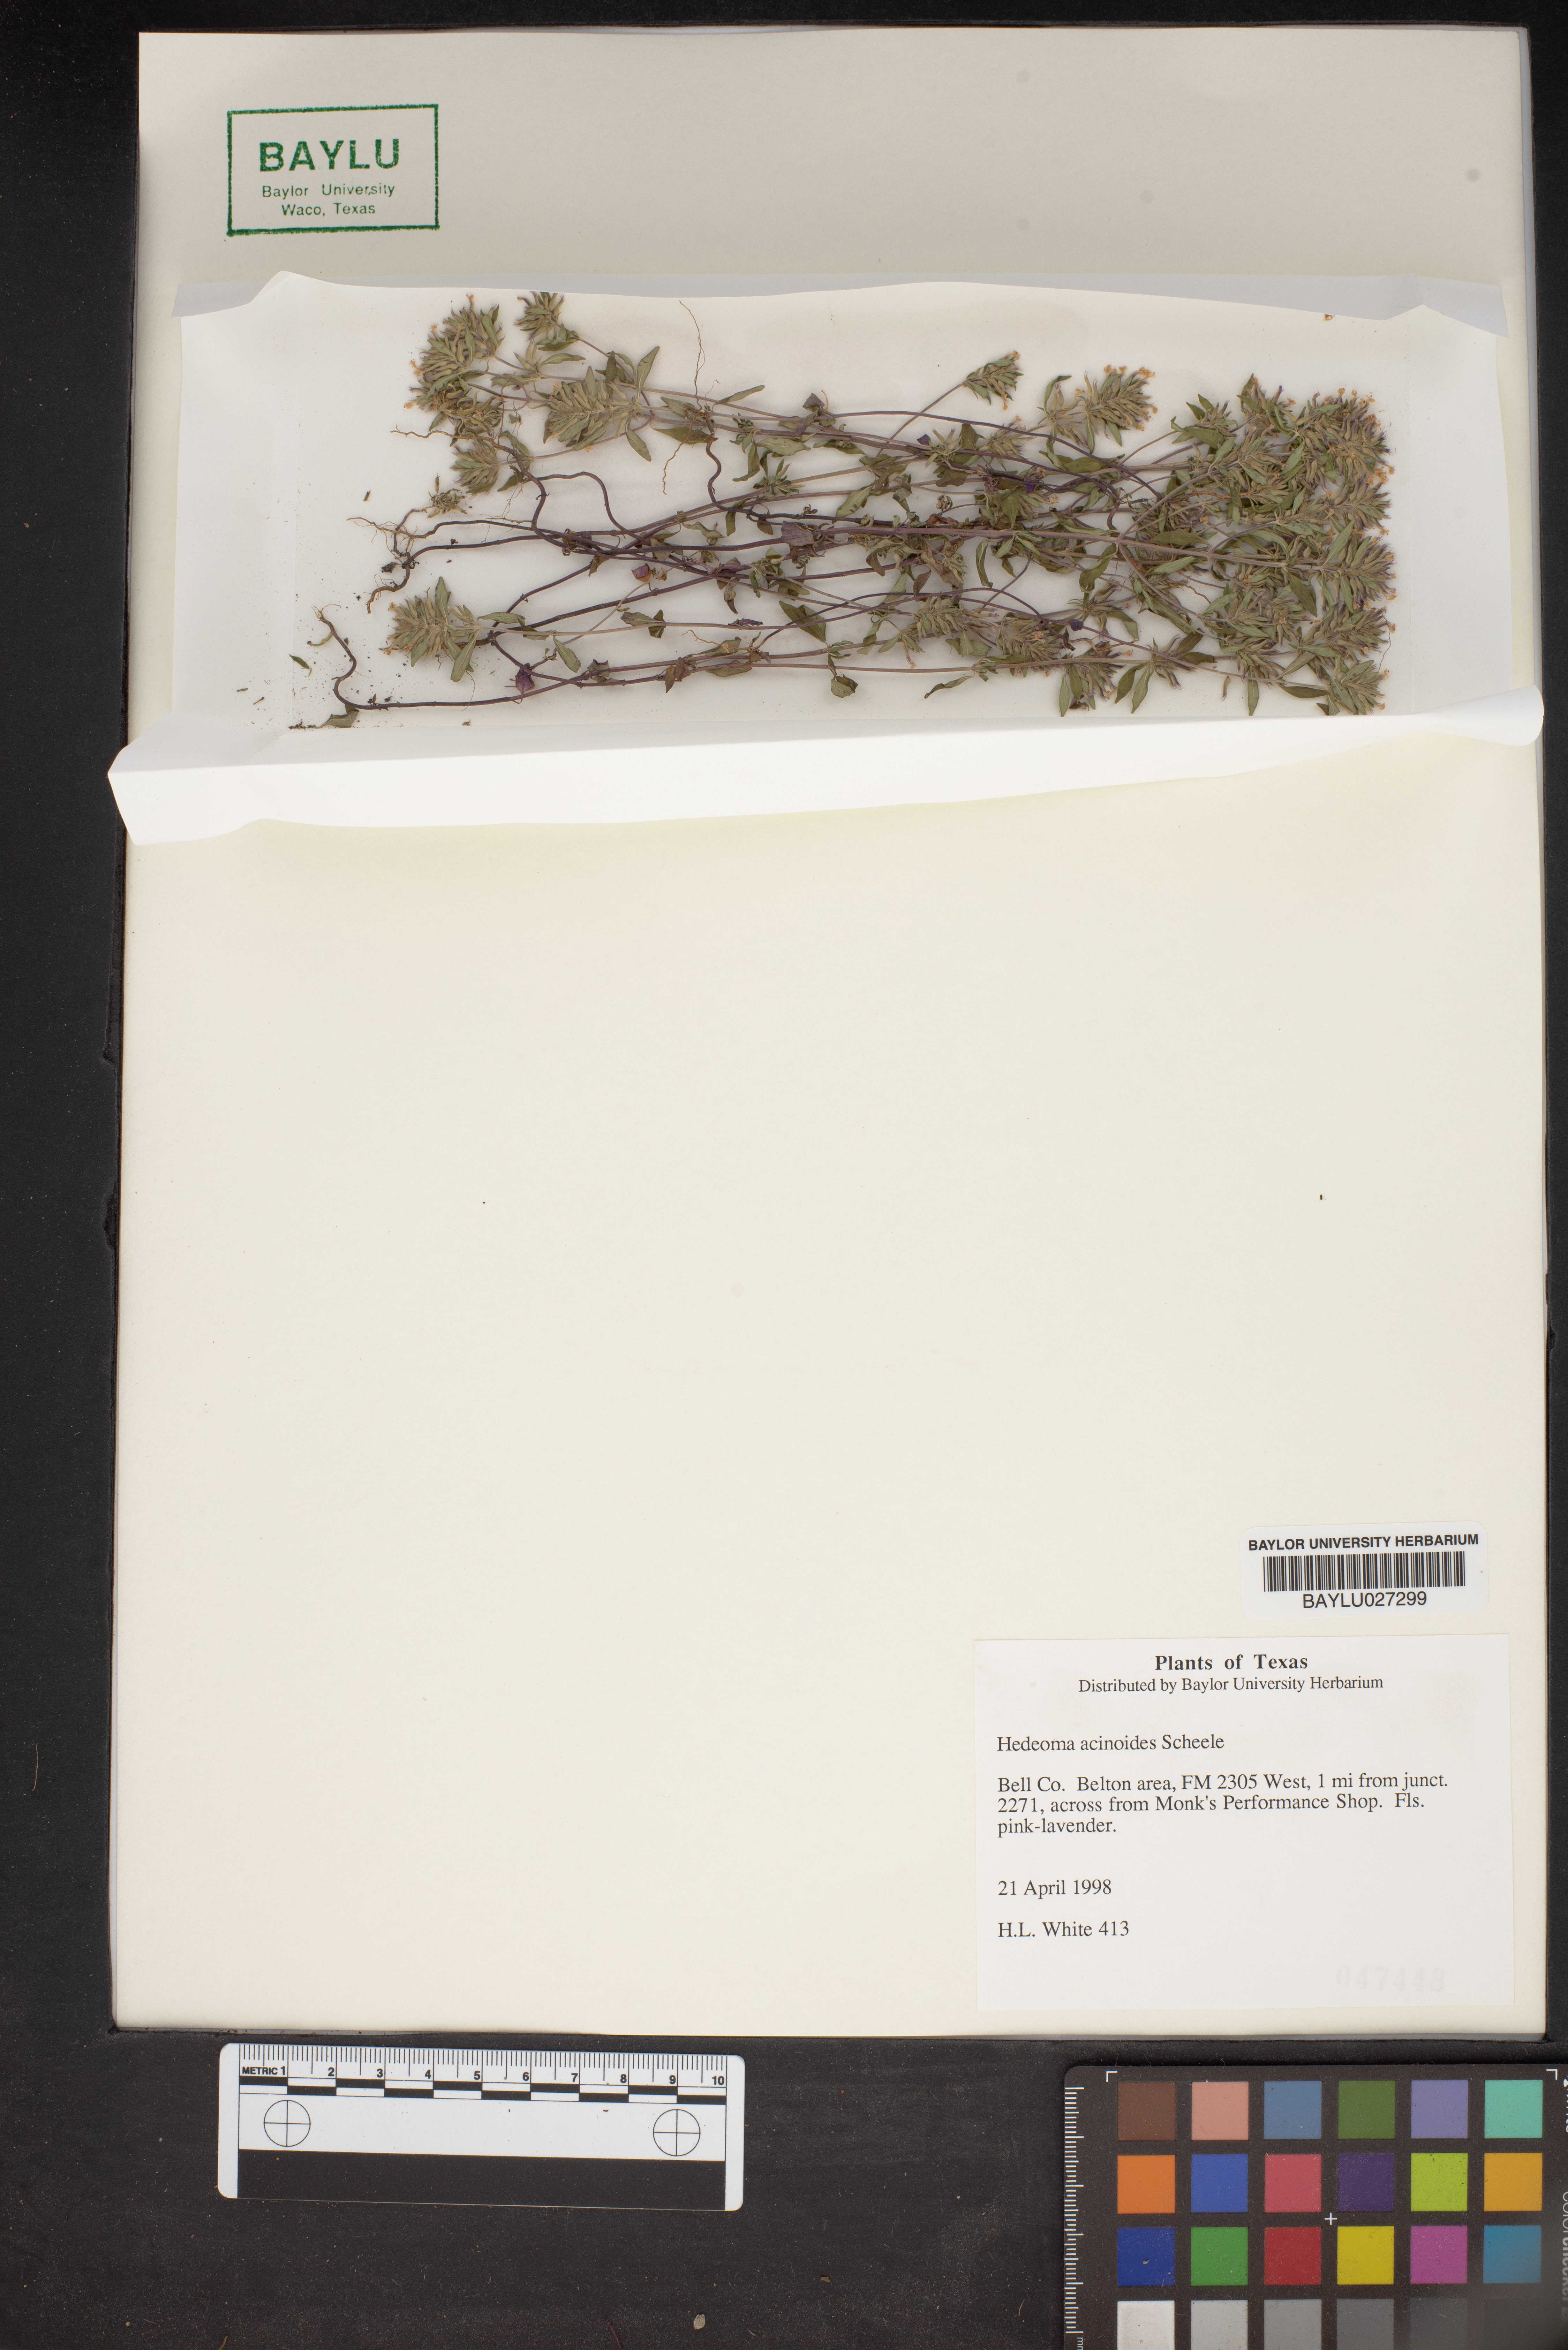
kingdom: Plantae
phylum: Tracheophyta
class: Magnoliopsida
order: Lamiales
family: Lamiaceae
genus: Hedeoma
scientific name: Hedeoma acinoides
